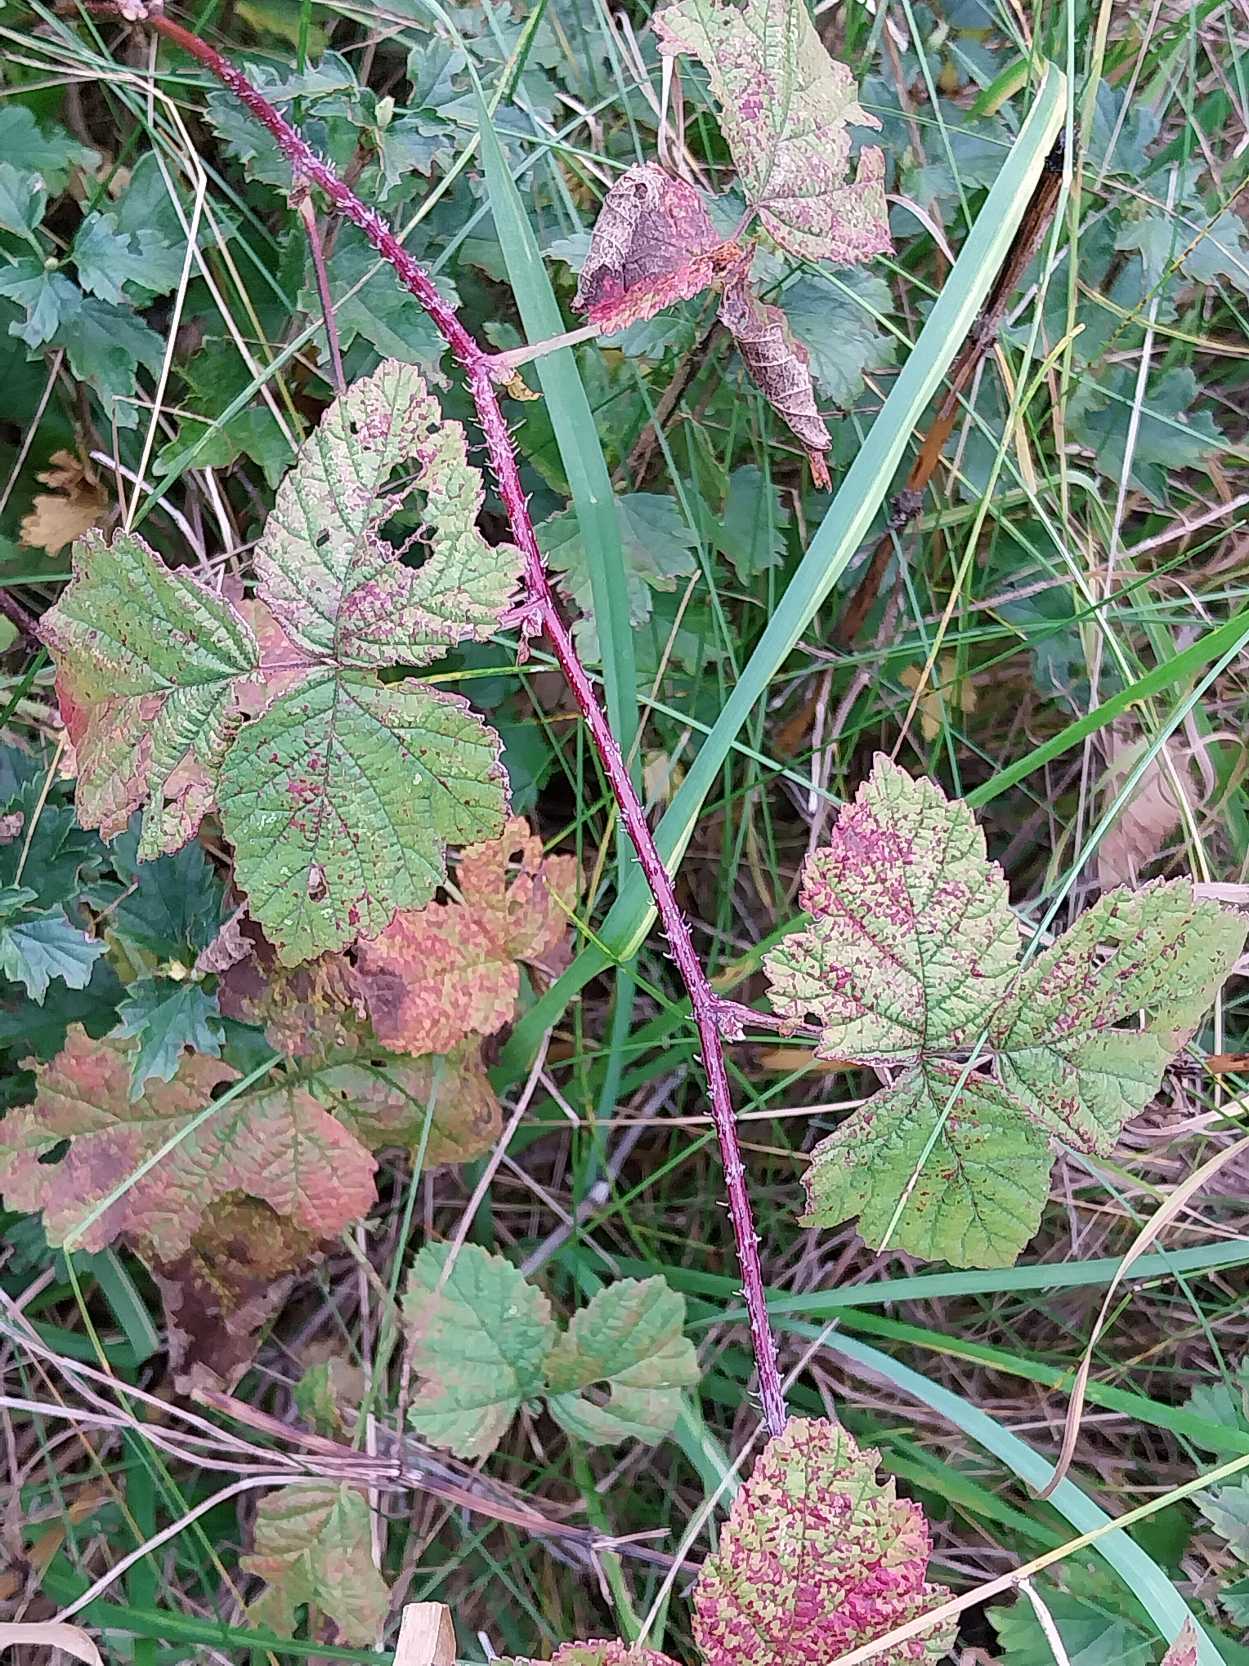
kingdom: Plantae
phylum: Tracheophyta
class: Magnoliopsida
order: Rosales
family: Rosaceae
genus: Rubus
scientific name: Rubus caesius
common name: Korbær
